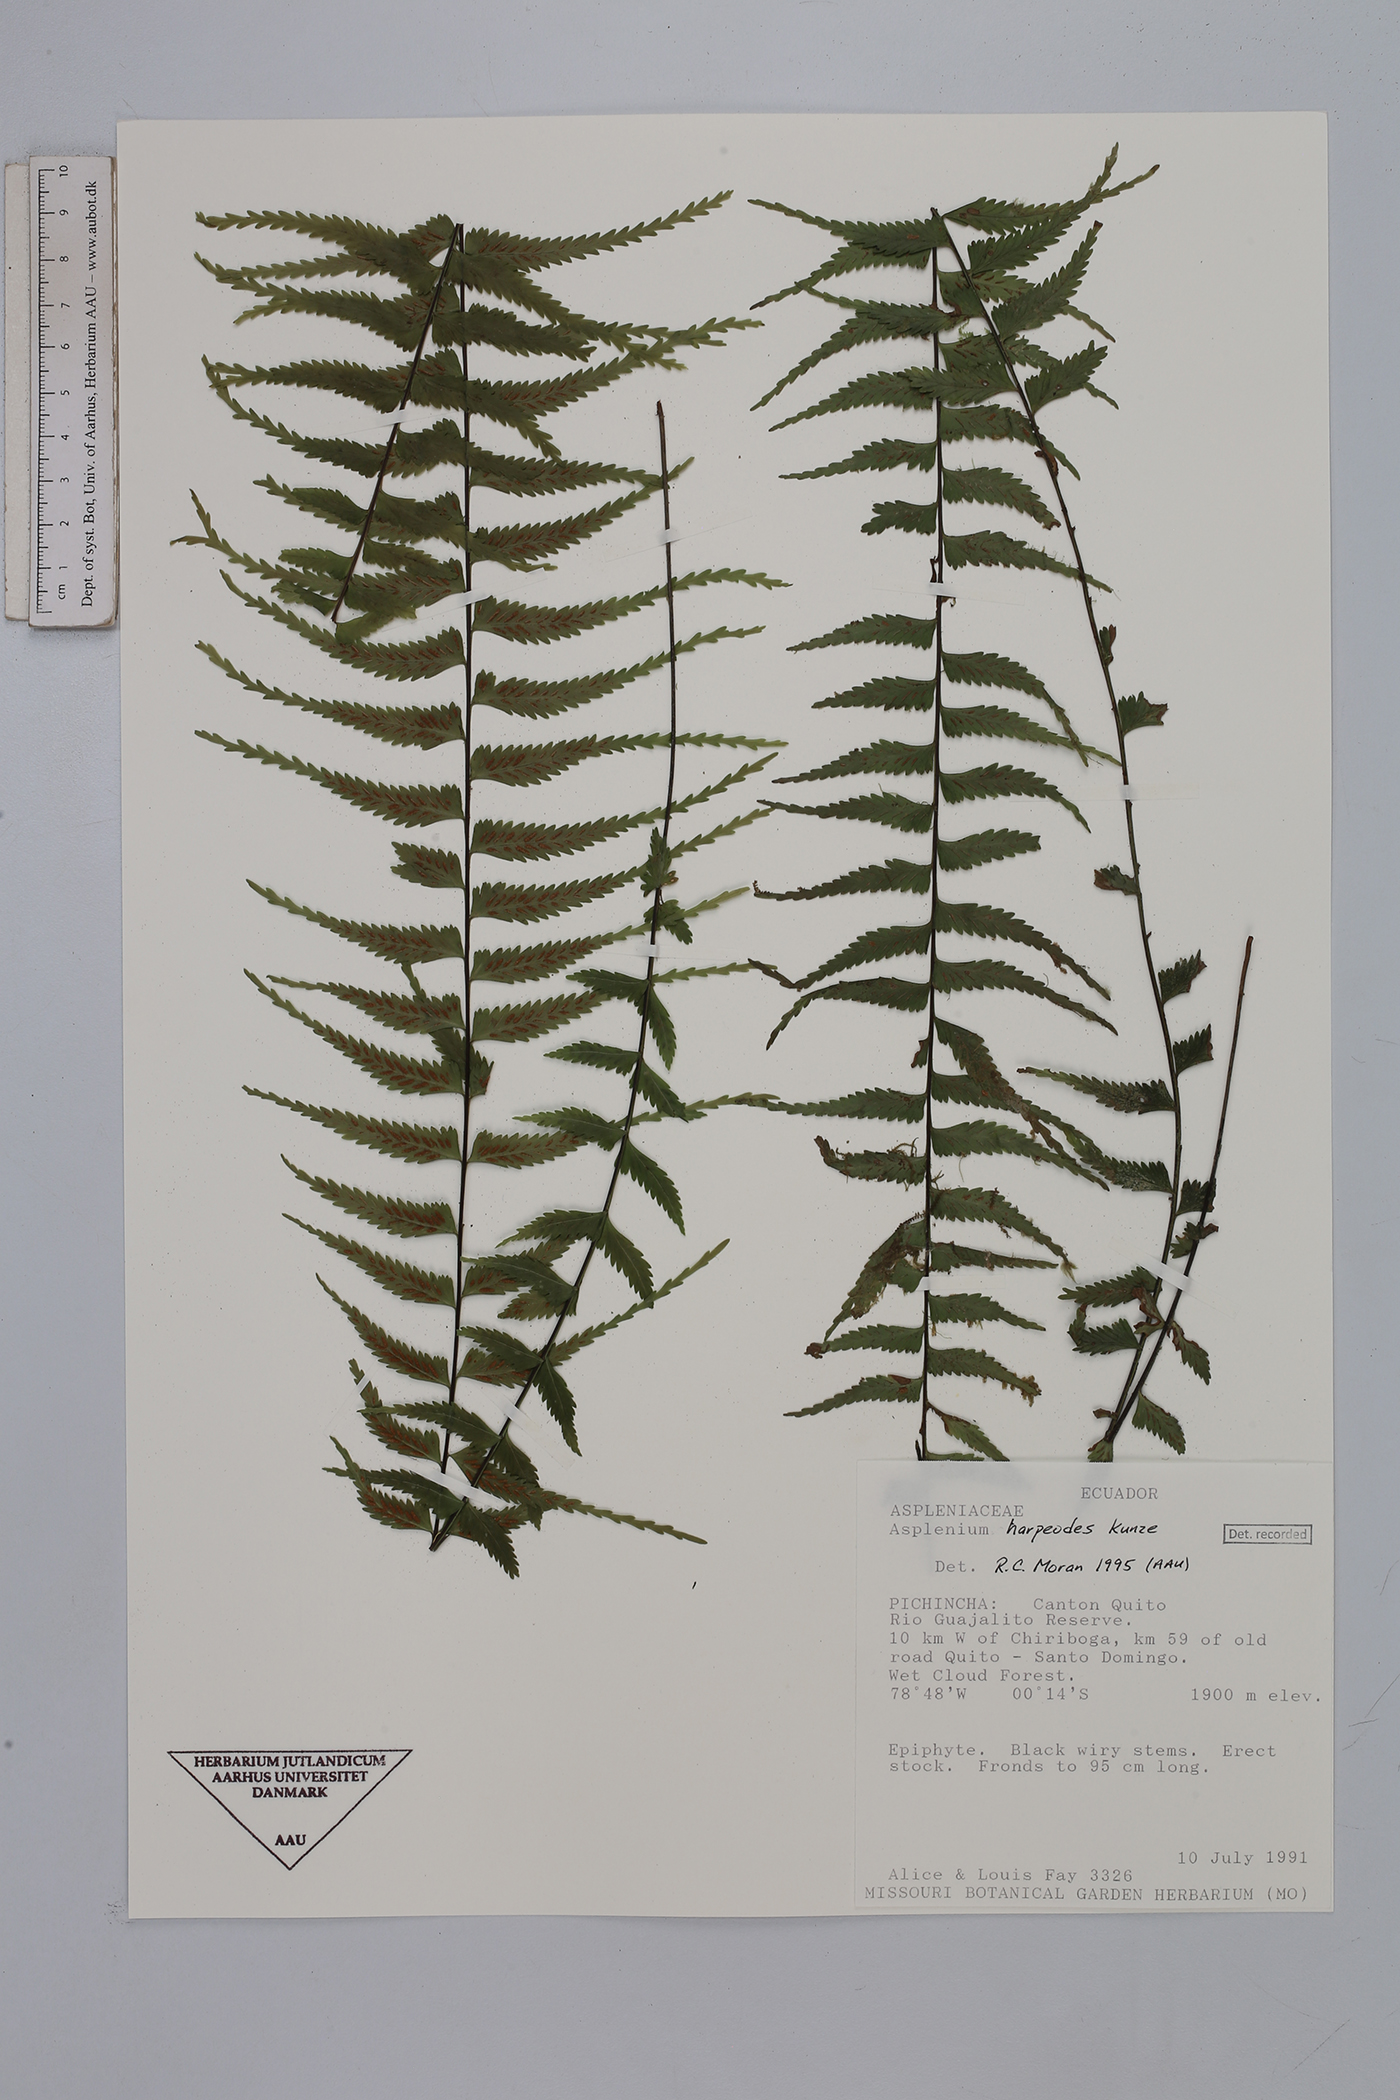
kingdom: Plantae
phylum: Tracheophyta
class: Polypodiopsida
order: Polypodiales
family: Aspleniaceae
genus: Asplenium
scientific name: Asplenium harpeodes
